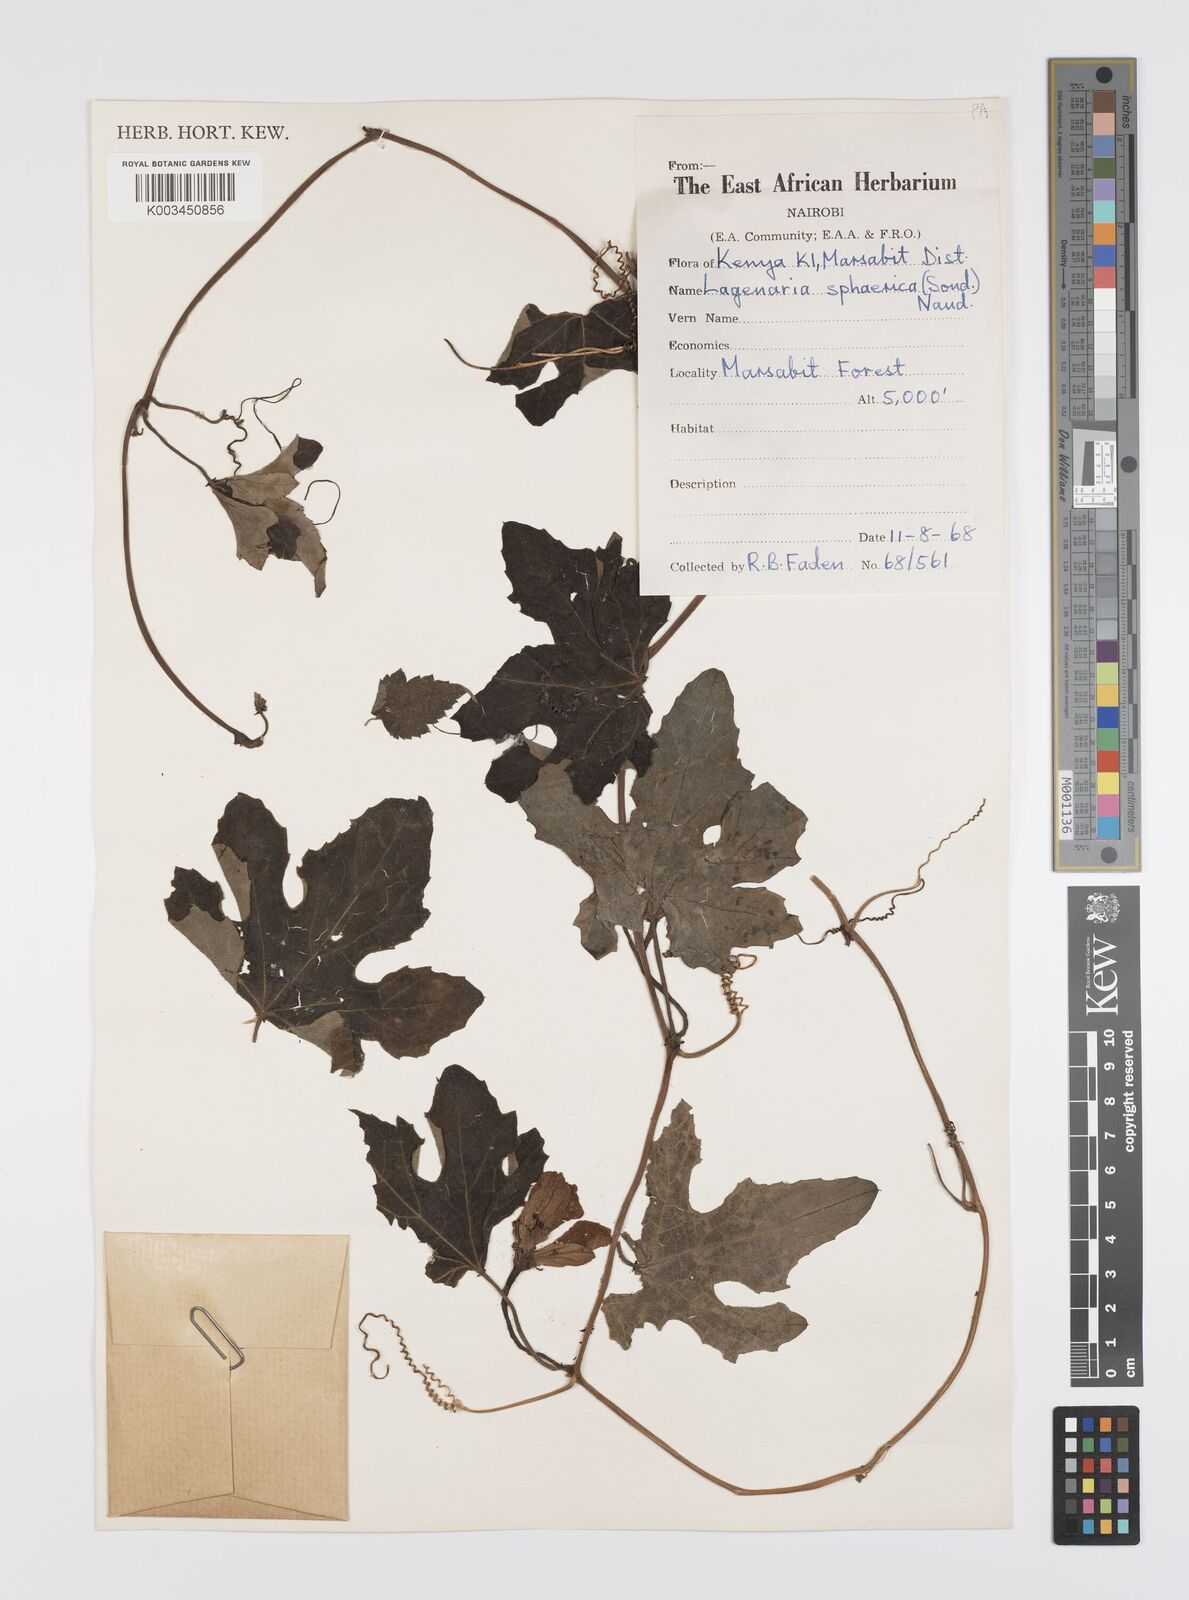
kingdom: Plantae
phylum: Tracheophyta
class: Magnoliopsida
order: Cucurbitales
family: Cucurbitaceae
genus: Lagenaria
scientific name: Lagenaria sphaerica
